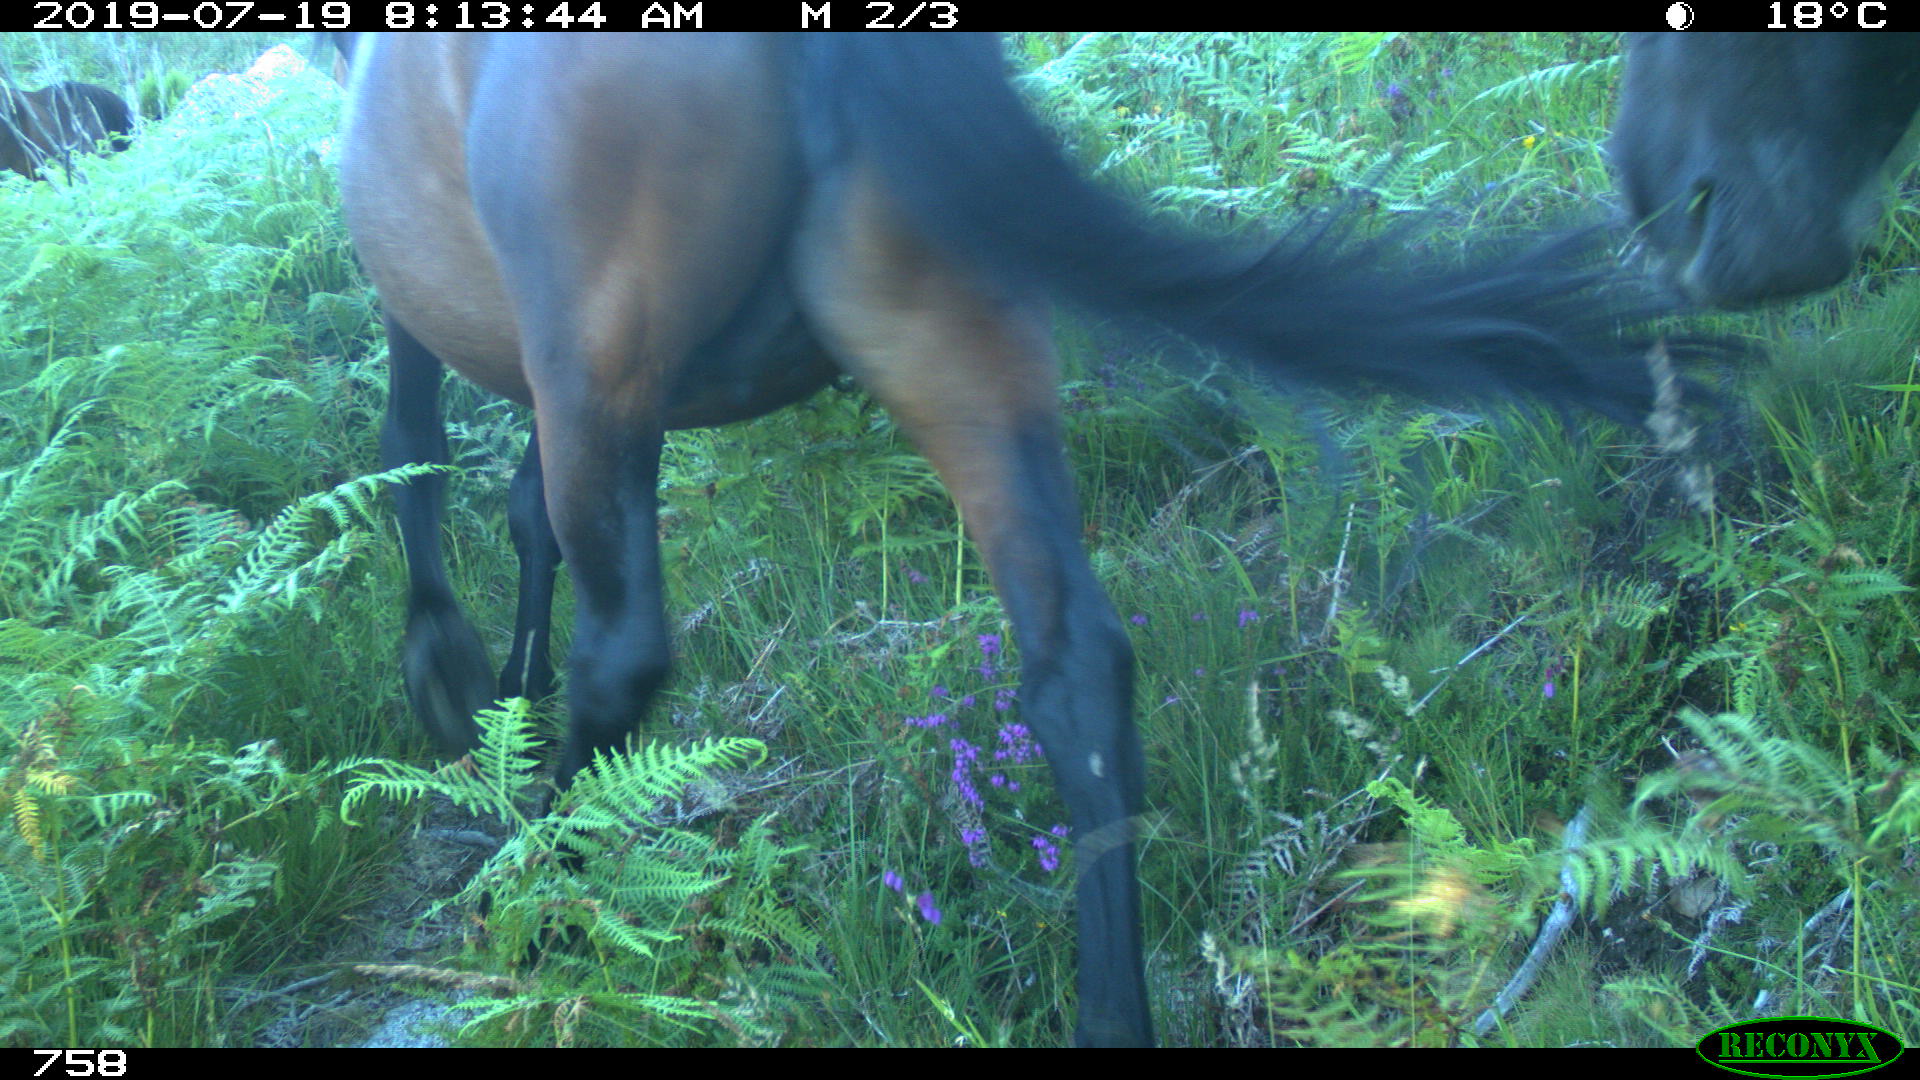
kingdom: Animalia
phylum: Chordata
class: Mammalia
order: Perissodactyla
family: Equidae
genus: Equus
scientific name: Equus caballus
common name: Horse
